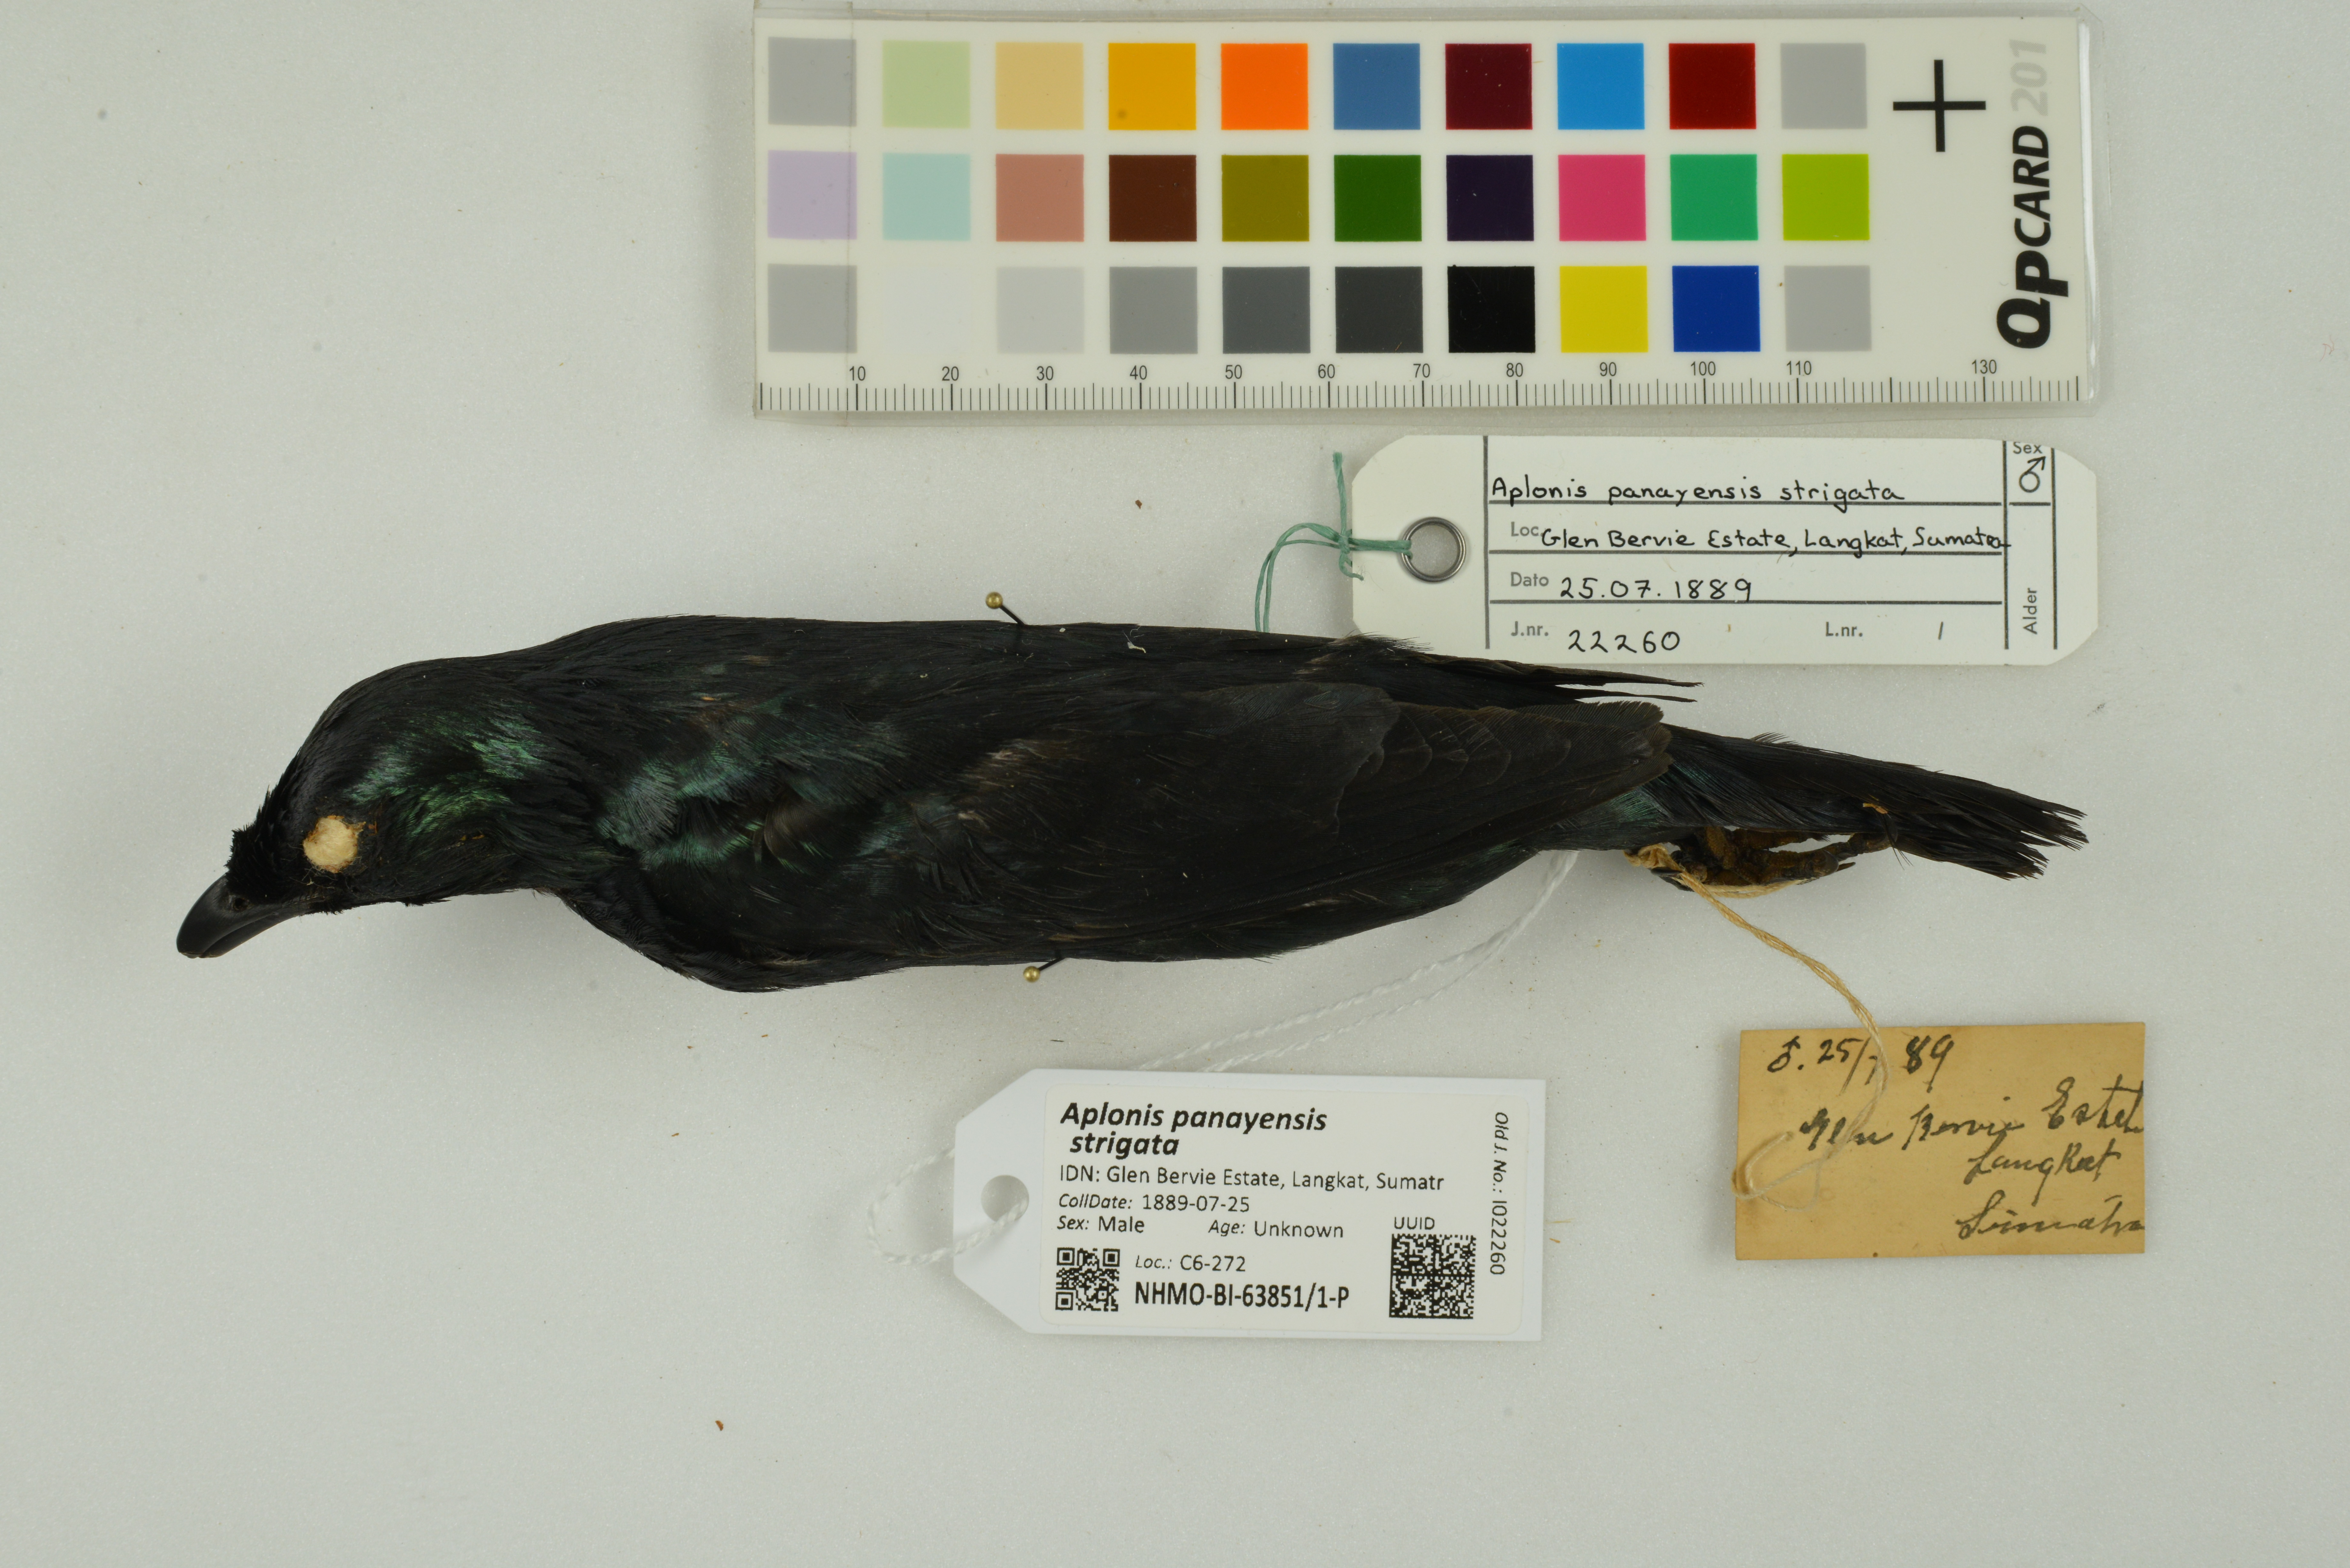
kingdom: Animalia
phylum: Chordata
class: Aves
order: Passeriformes
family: Sturnidae
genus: Aplonis
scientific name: Aplonis panayensis
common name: Asian glossy starling
